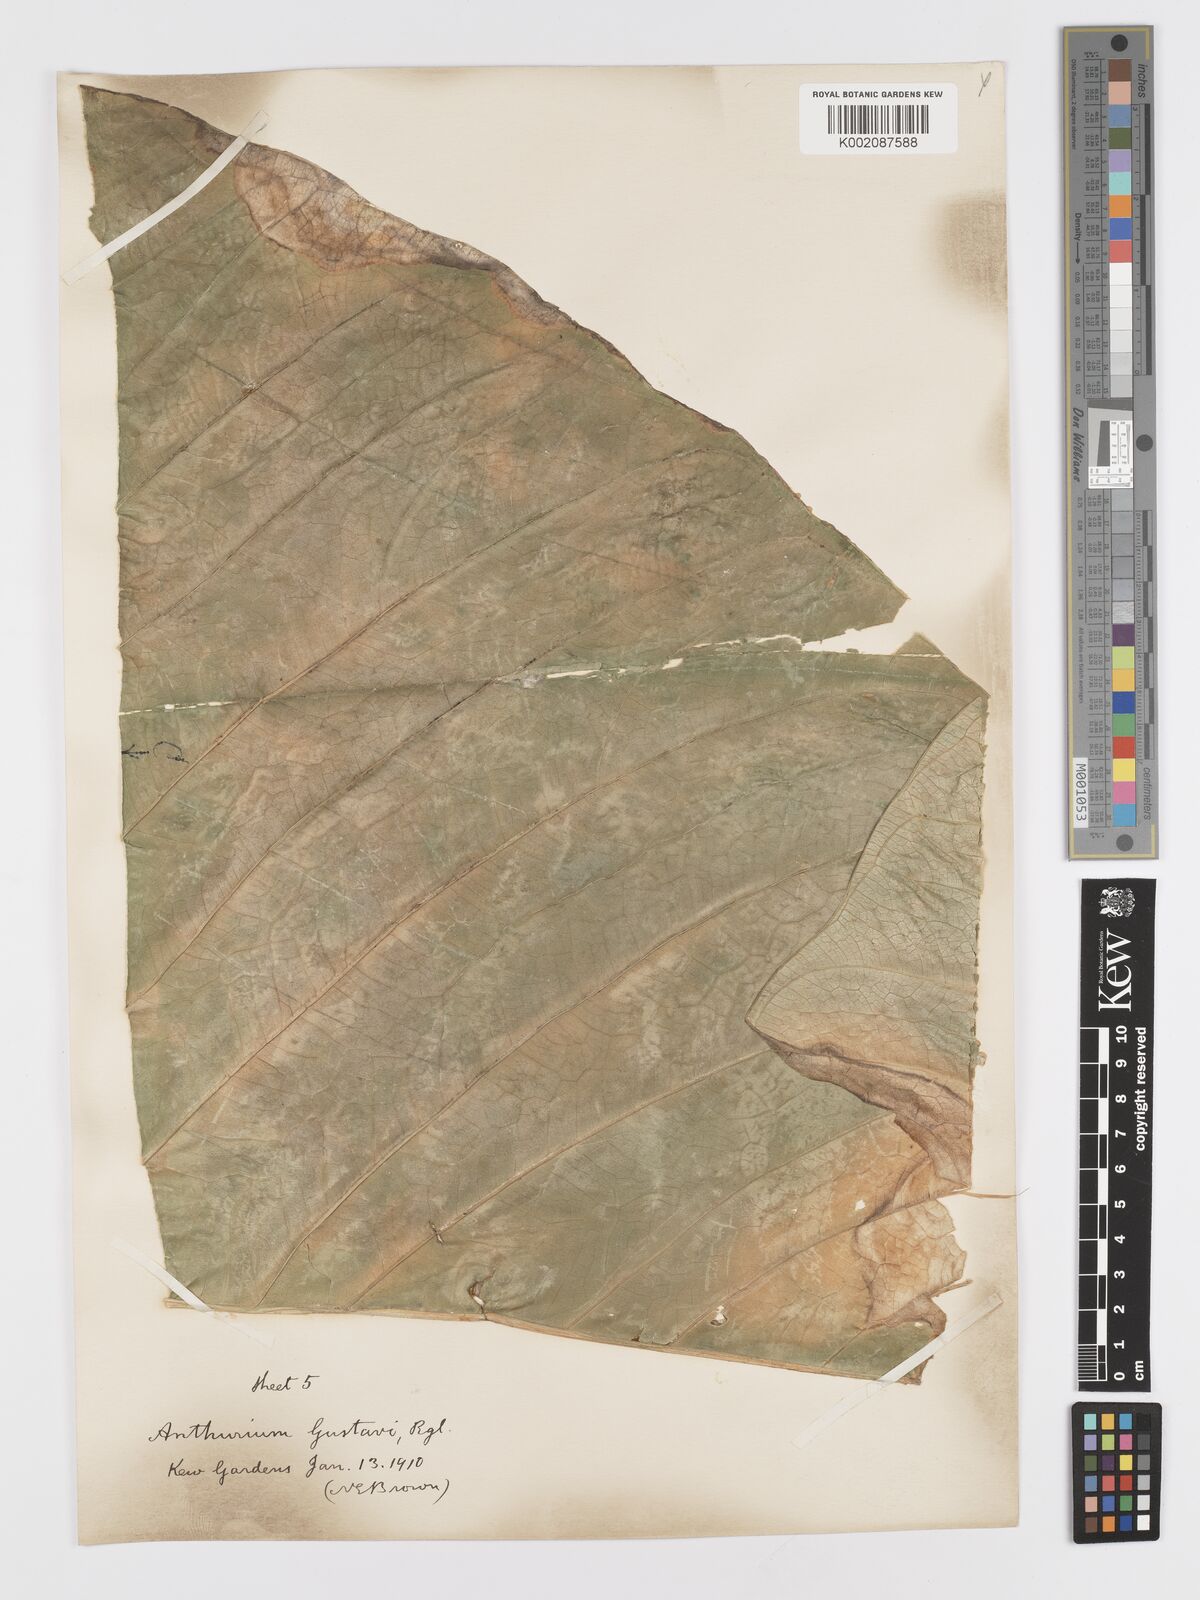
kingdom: Plantae
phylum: Tracheophyta
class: Liliopsida
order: Alismatales
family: Araceae
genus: Anthurium
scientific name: Anthurium gustavii
